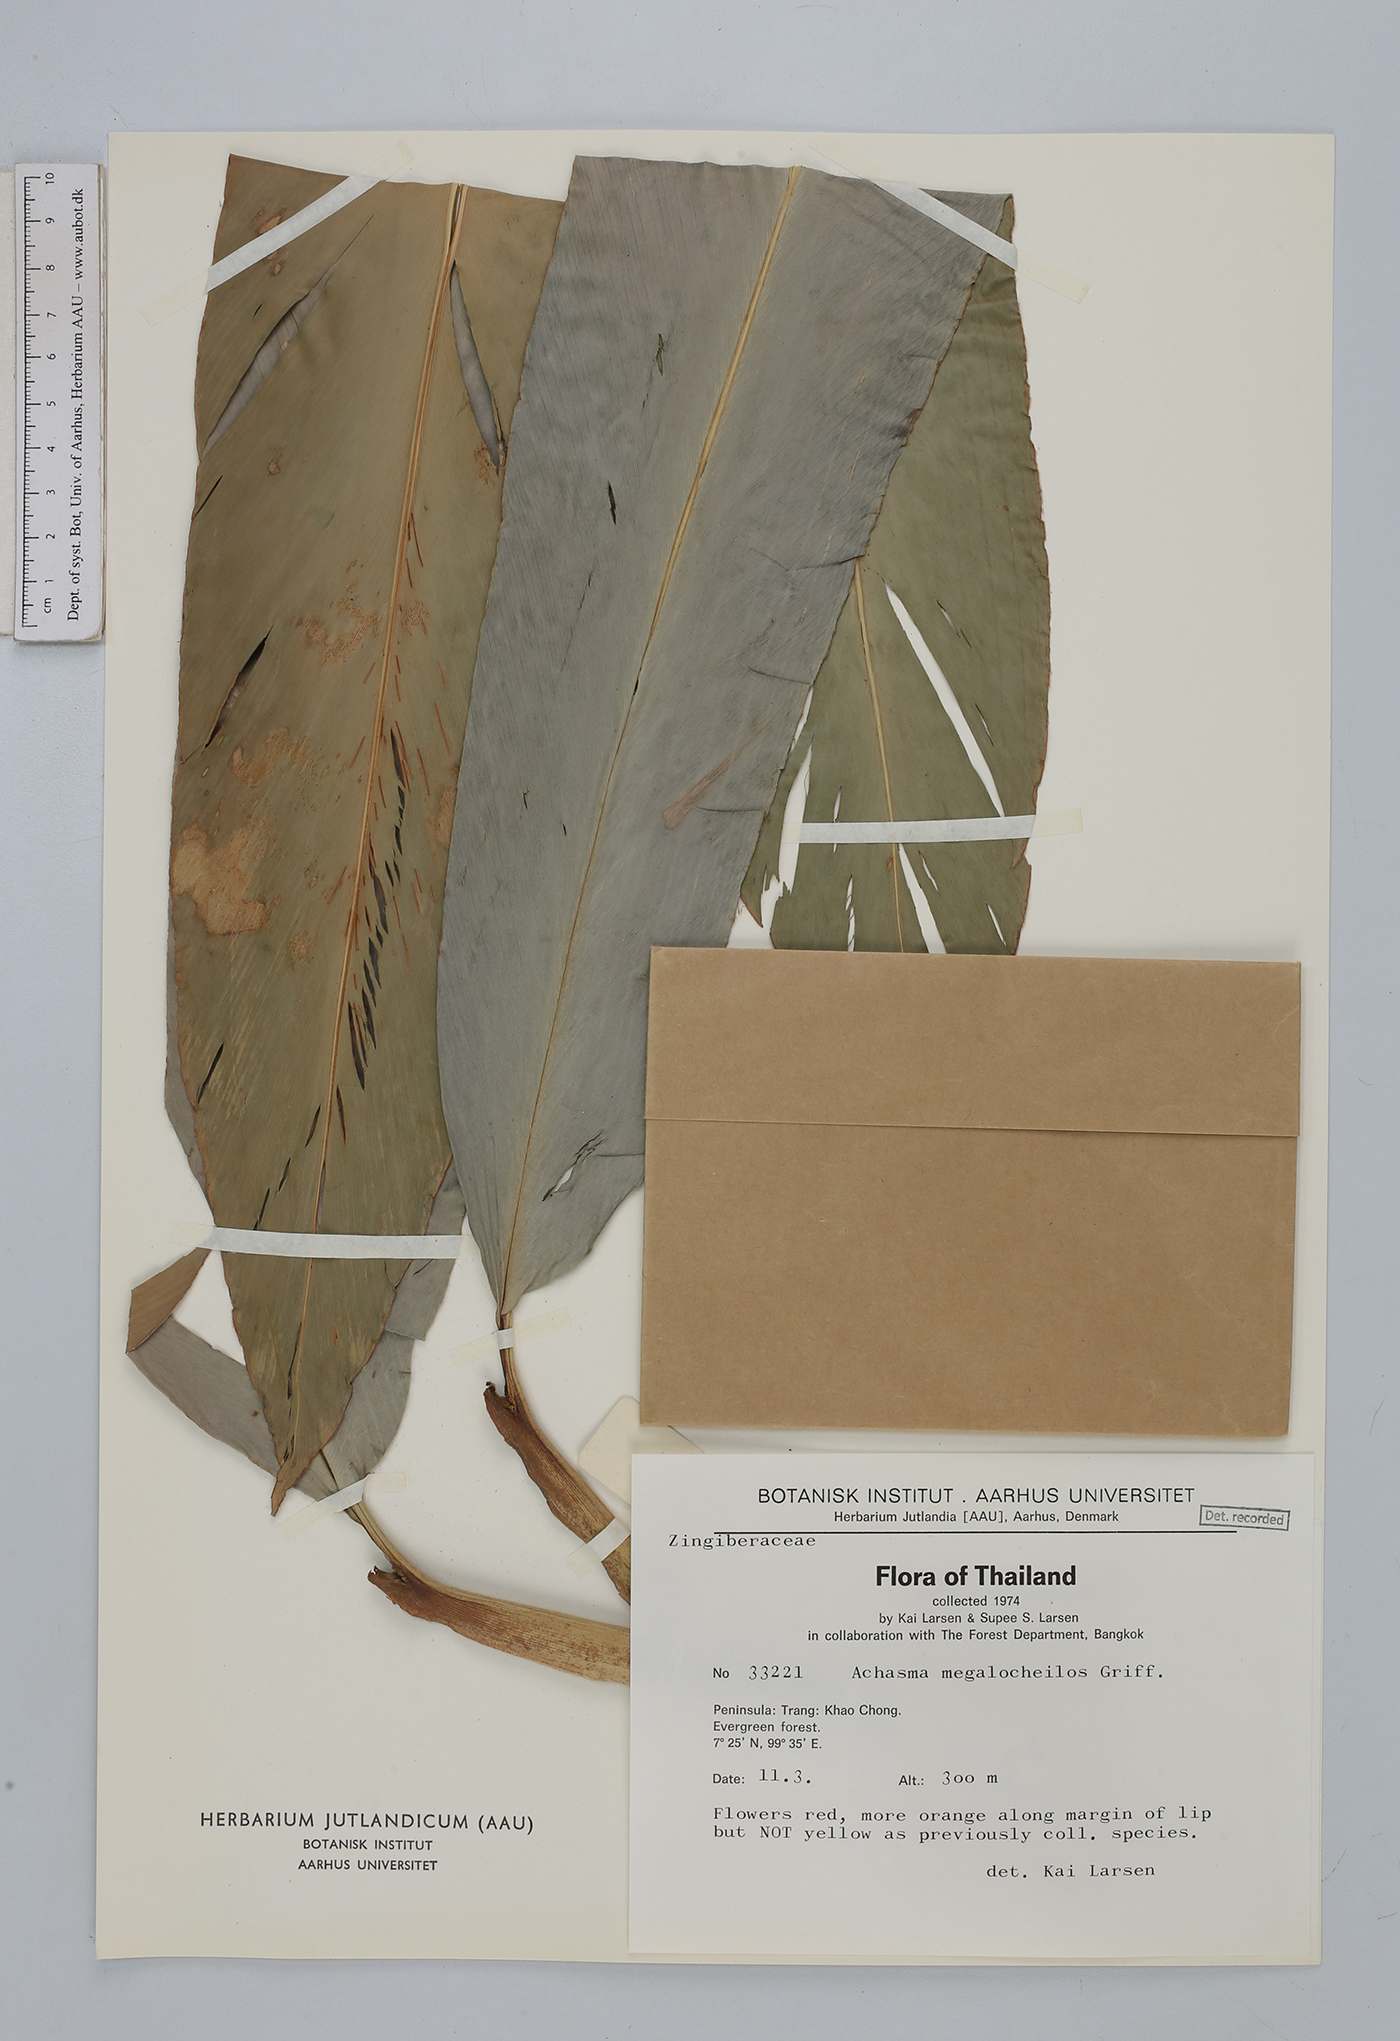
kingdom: Plantae
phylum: Tracheophyta
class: Liliopsida
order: Zingiberales
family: Zingiberaceae
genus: Etlingera
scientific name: Etlingera
